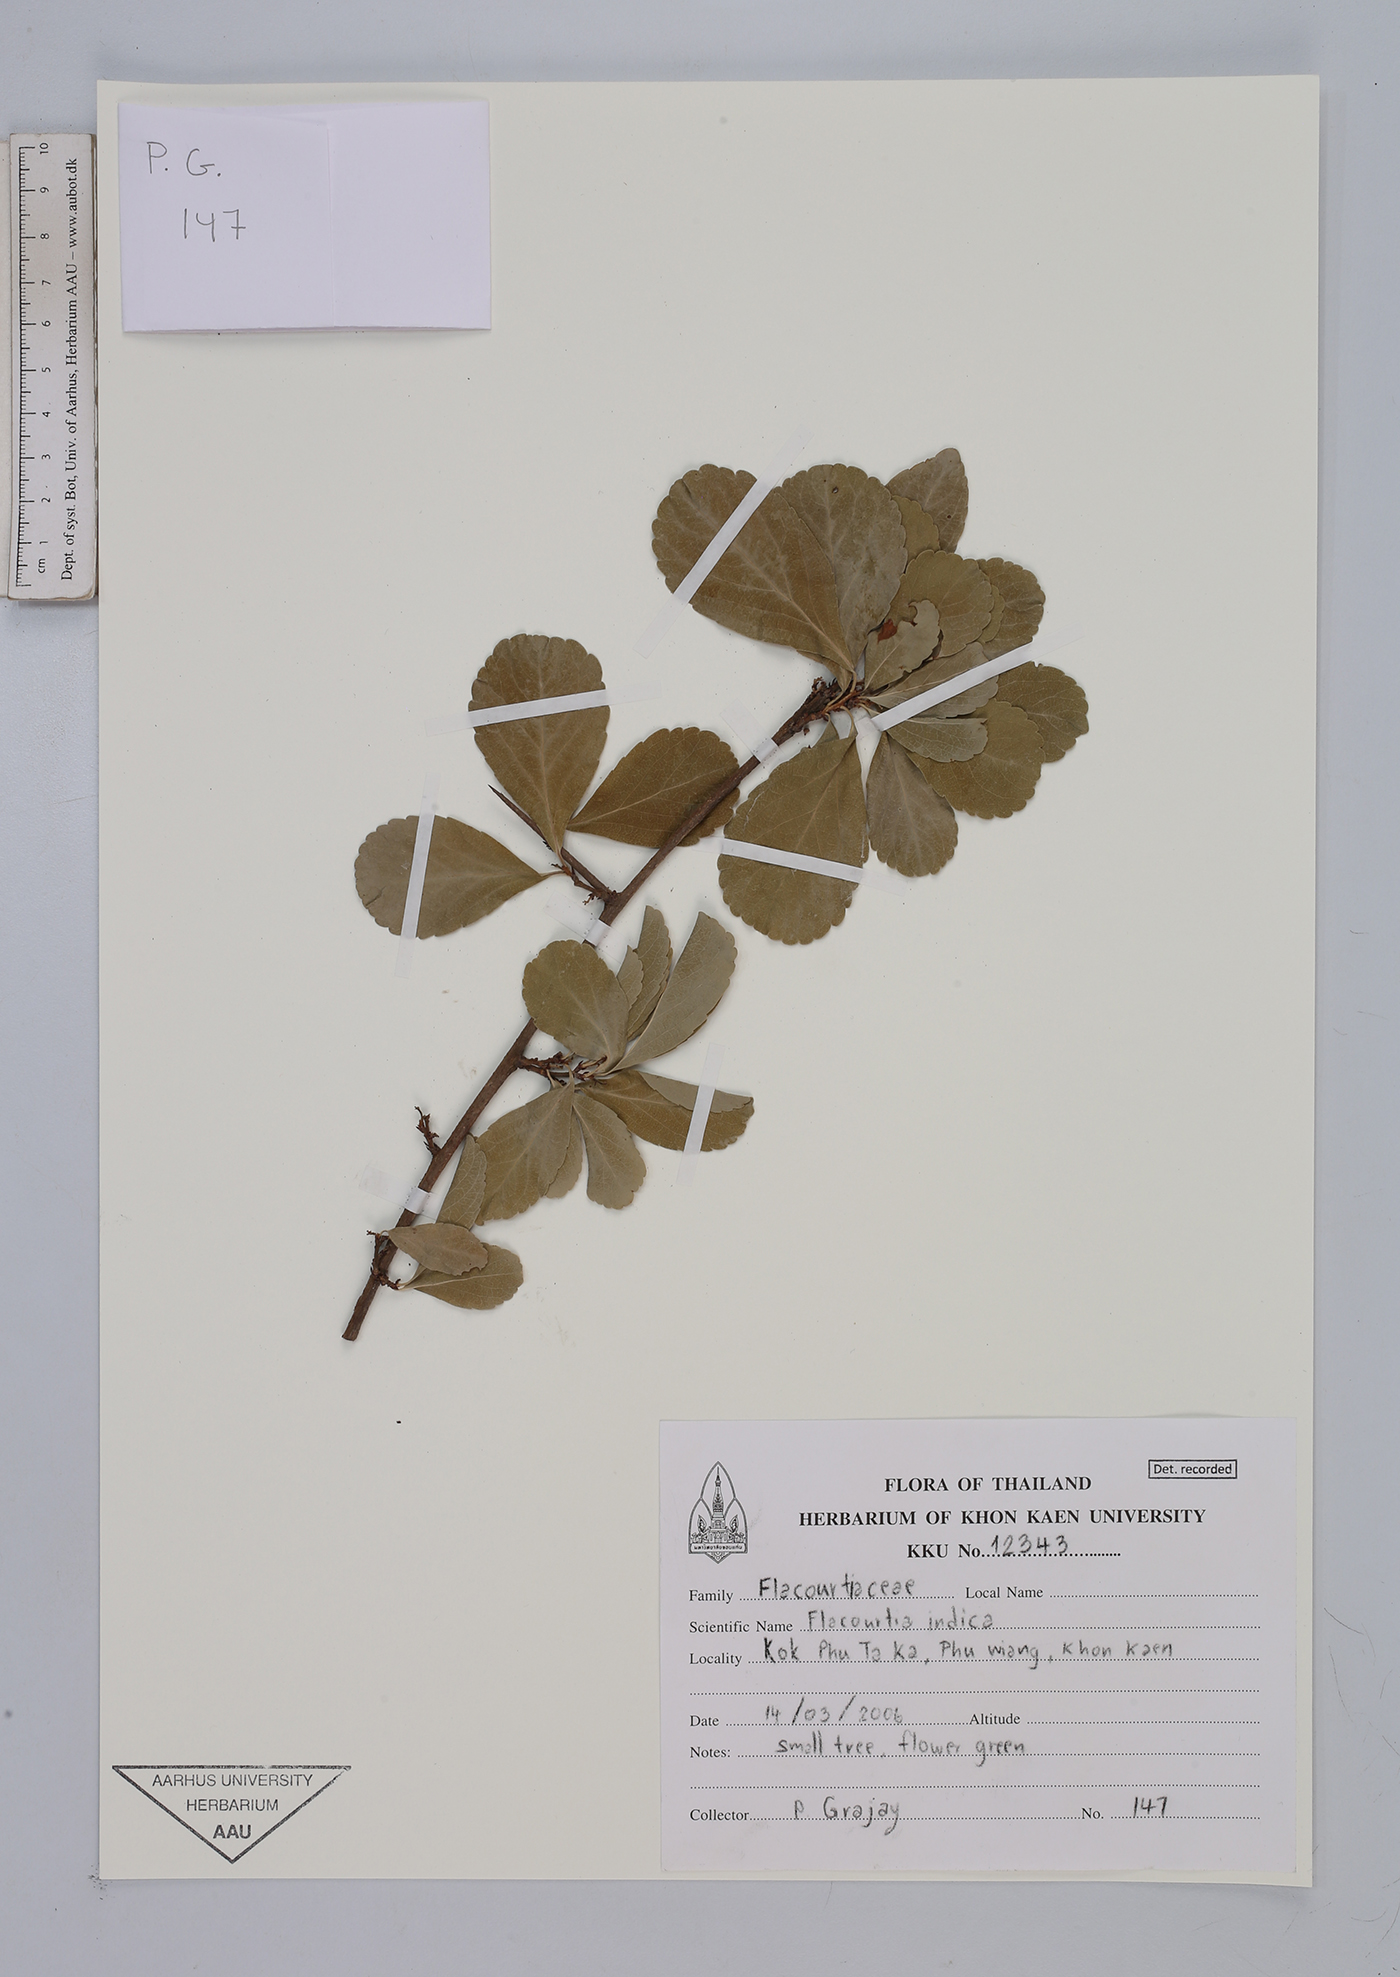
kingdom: Plantae
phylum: Tracheophyta
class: Magnoliopsida
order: Malpighiales
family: Salicaceae
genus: Flacourtia
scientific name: Flacourtia indica
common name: Governor's plum
